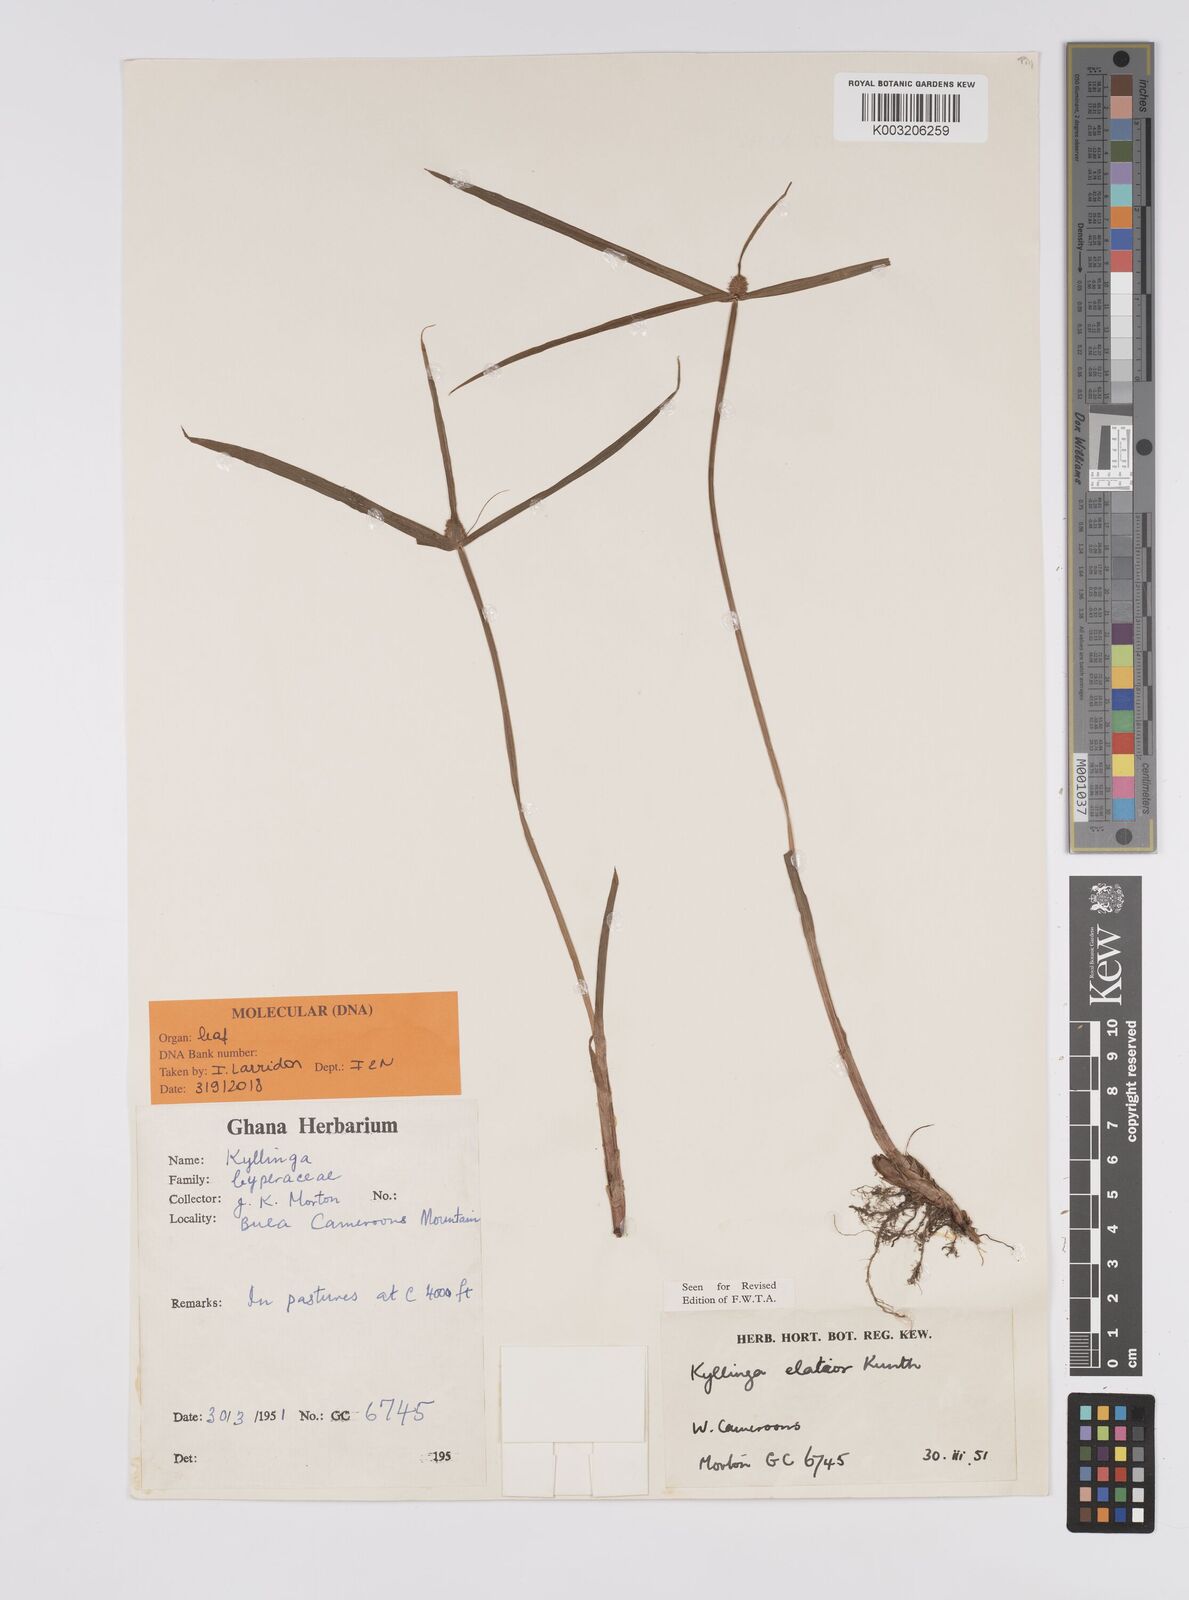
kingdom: Plantae
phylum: Tracheophyta
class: Liliopsida
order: Poales
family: Cyperaceae
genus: Cyperus
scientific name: Cyperus
